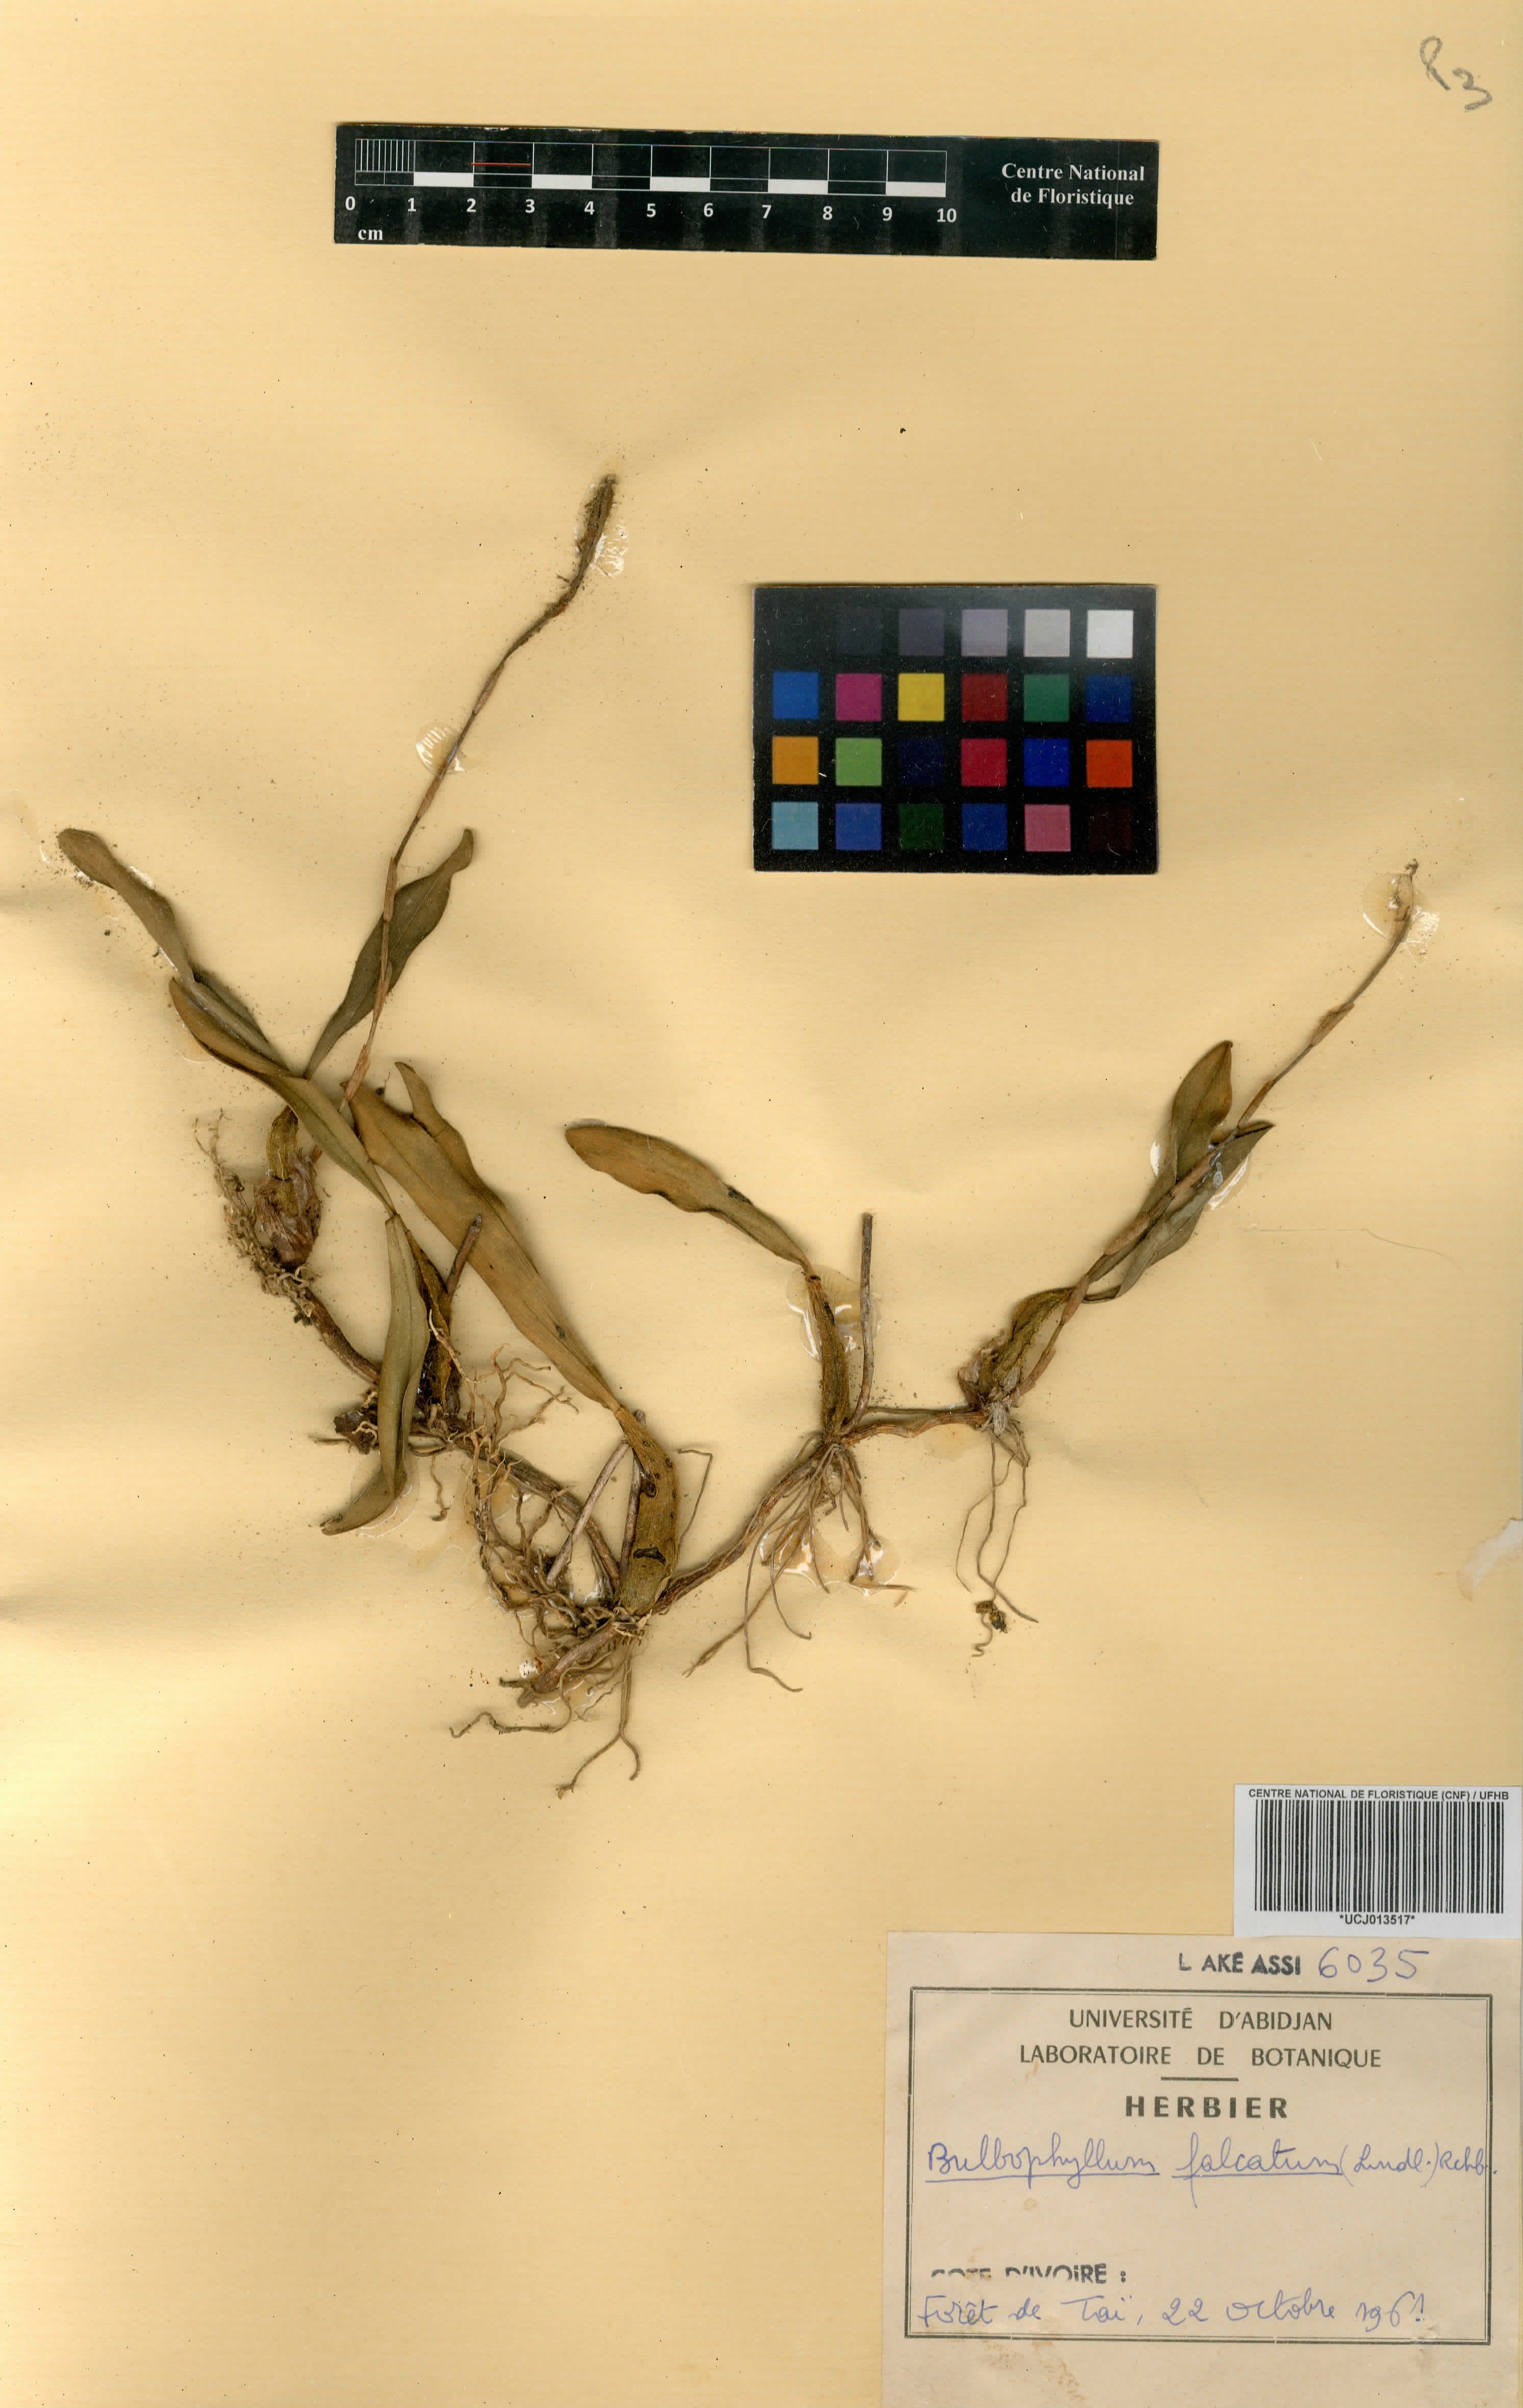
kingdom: Plantae
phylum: Tracheophyta
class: Liliopsida
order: Asparagales
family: Orchidaceae
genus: Bulbophyllum
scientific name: Bulbophyllum falcatum
